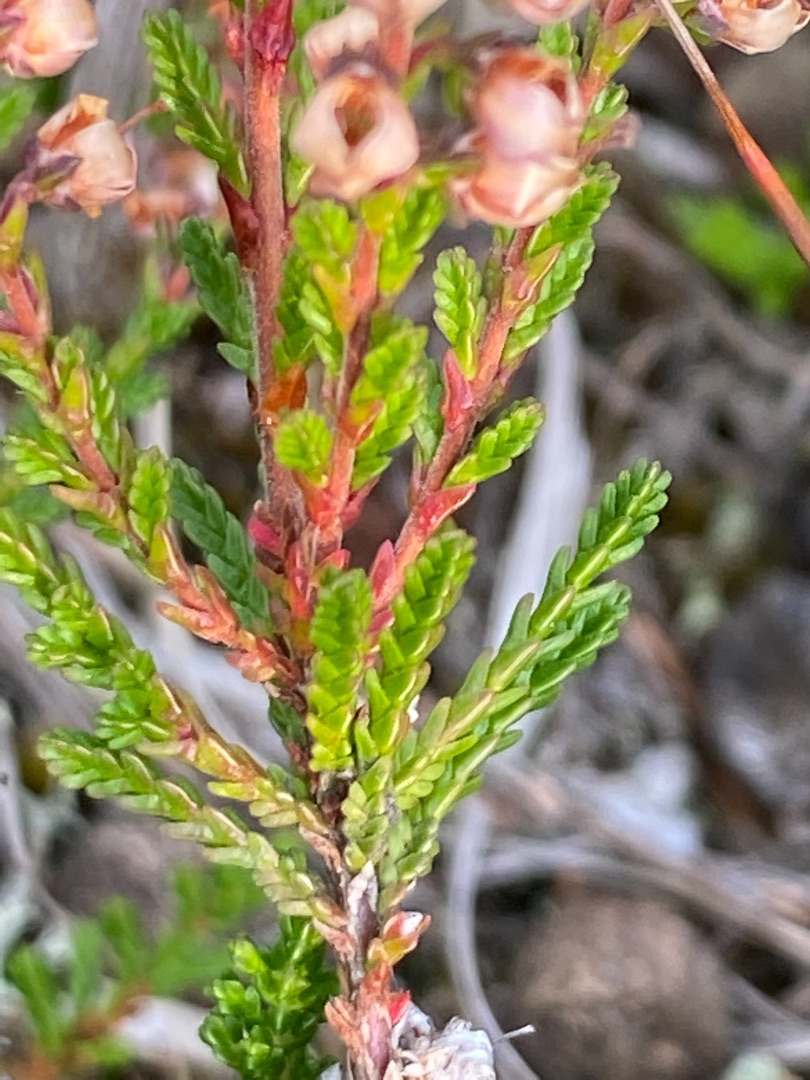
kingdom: Plantae
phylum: Tracheophyta
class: Magnoliopsida
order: Ericales
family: Ericaceae
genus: Calluna
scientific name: Calluna vulgaris
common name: Hedelyng
